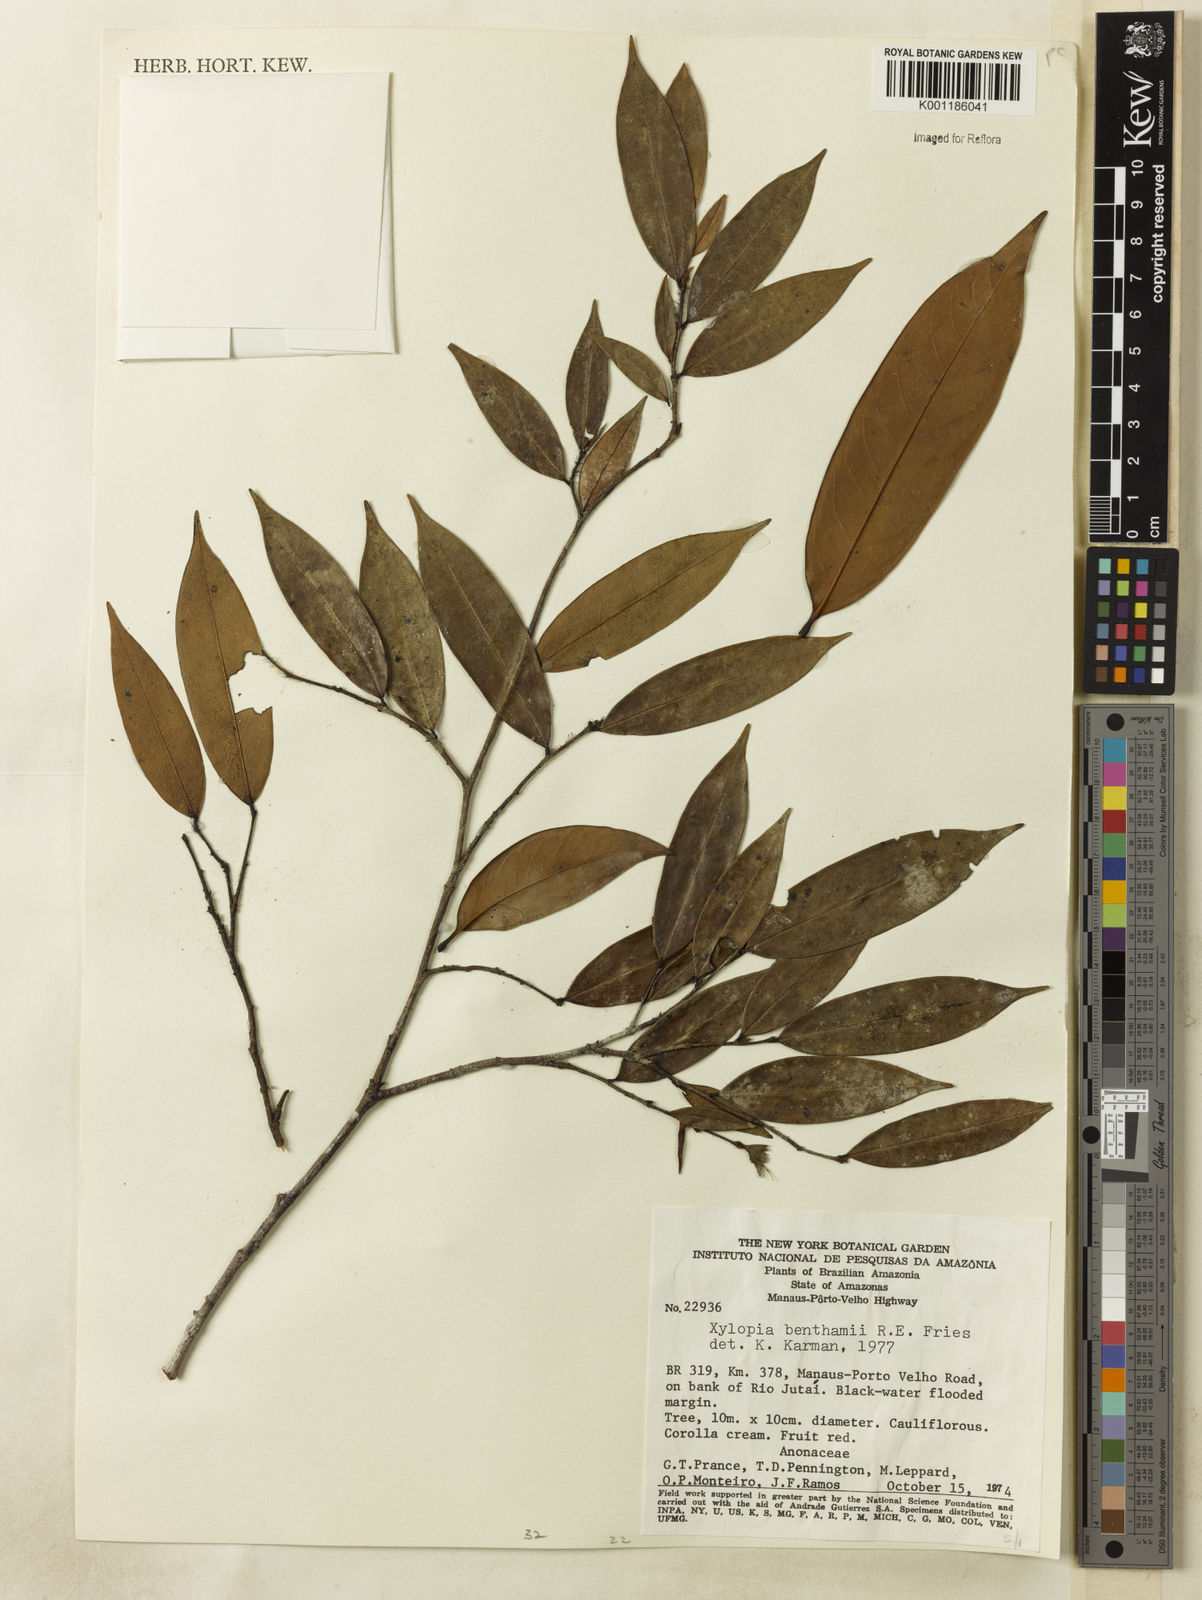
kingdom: Plantae
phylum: Tracheophyta
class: Magnoliopsida
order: Magnoliales
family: Annonaceae
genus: Xylopia
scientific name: Xylopia benthamii
